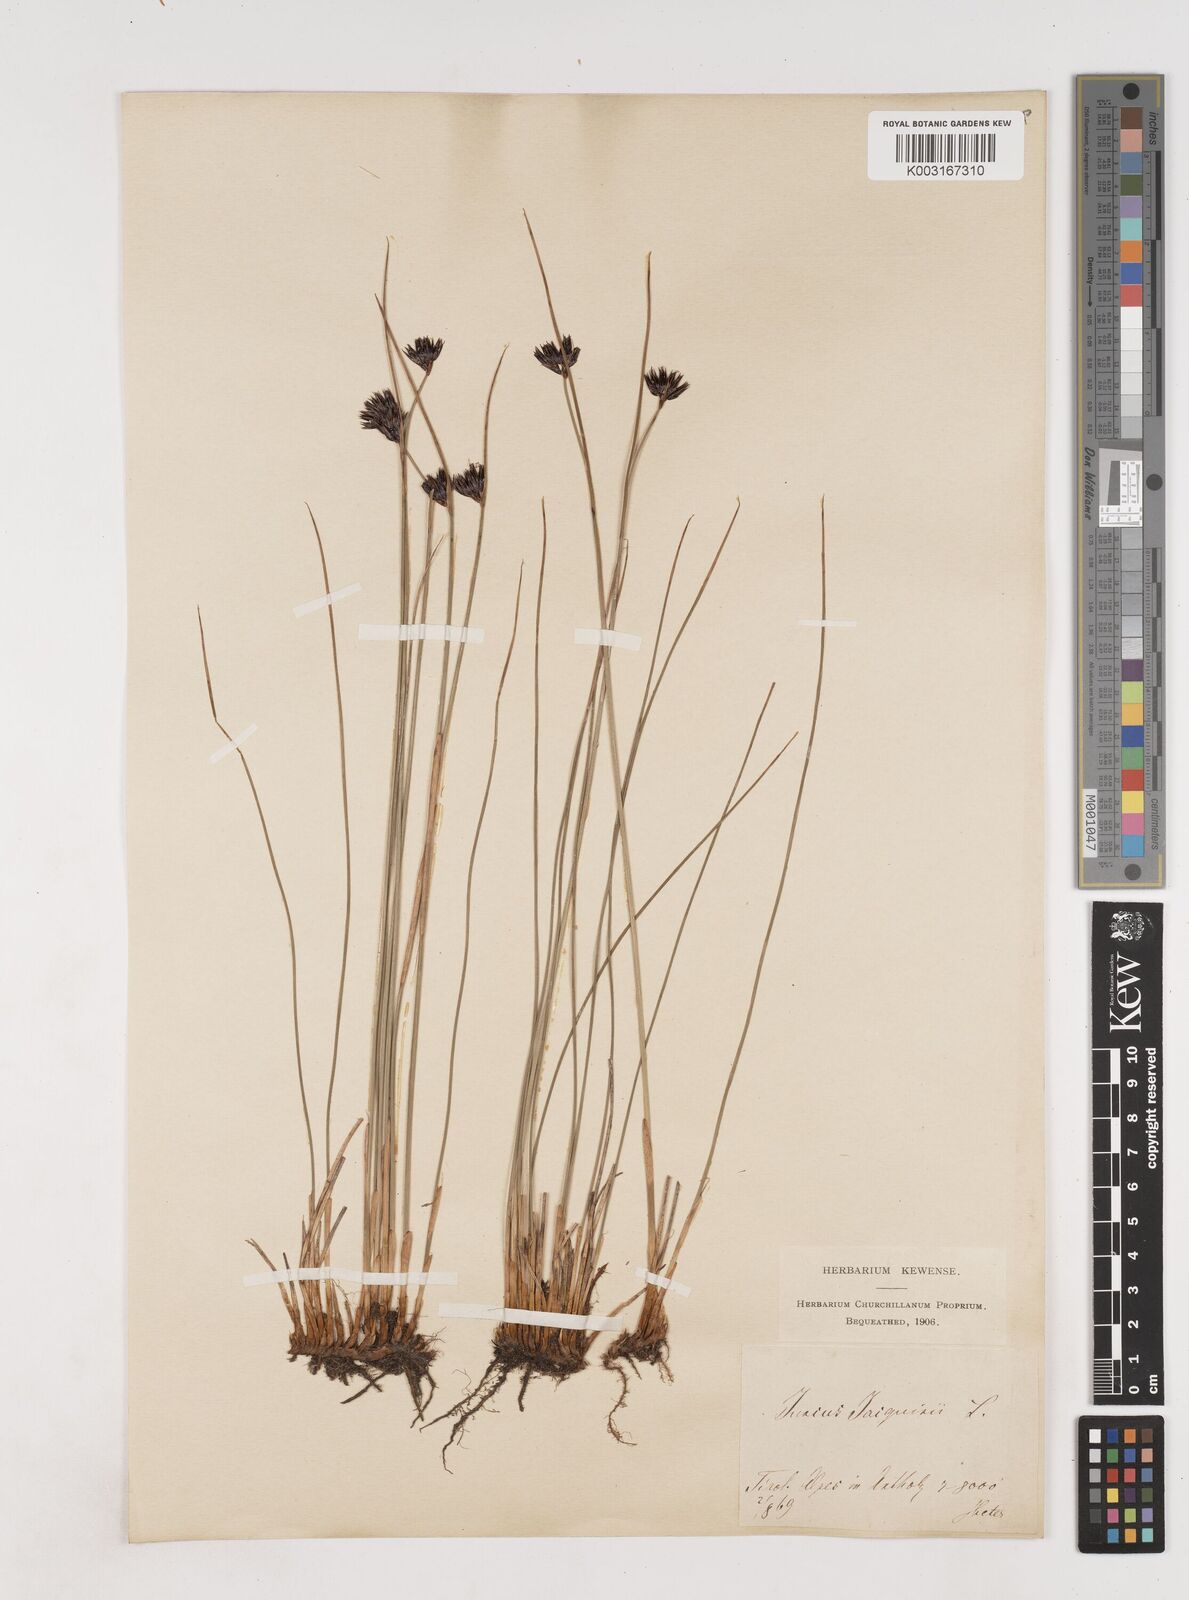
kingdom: Plantae
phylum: Tracheophyta
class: Liliopsida
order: Poales
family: Juncaceae
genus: Juncus
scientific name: Juncus jacquinii
